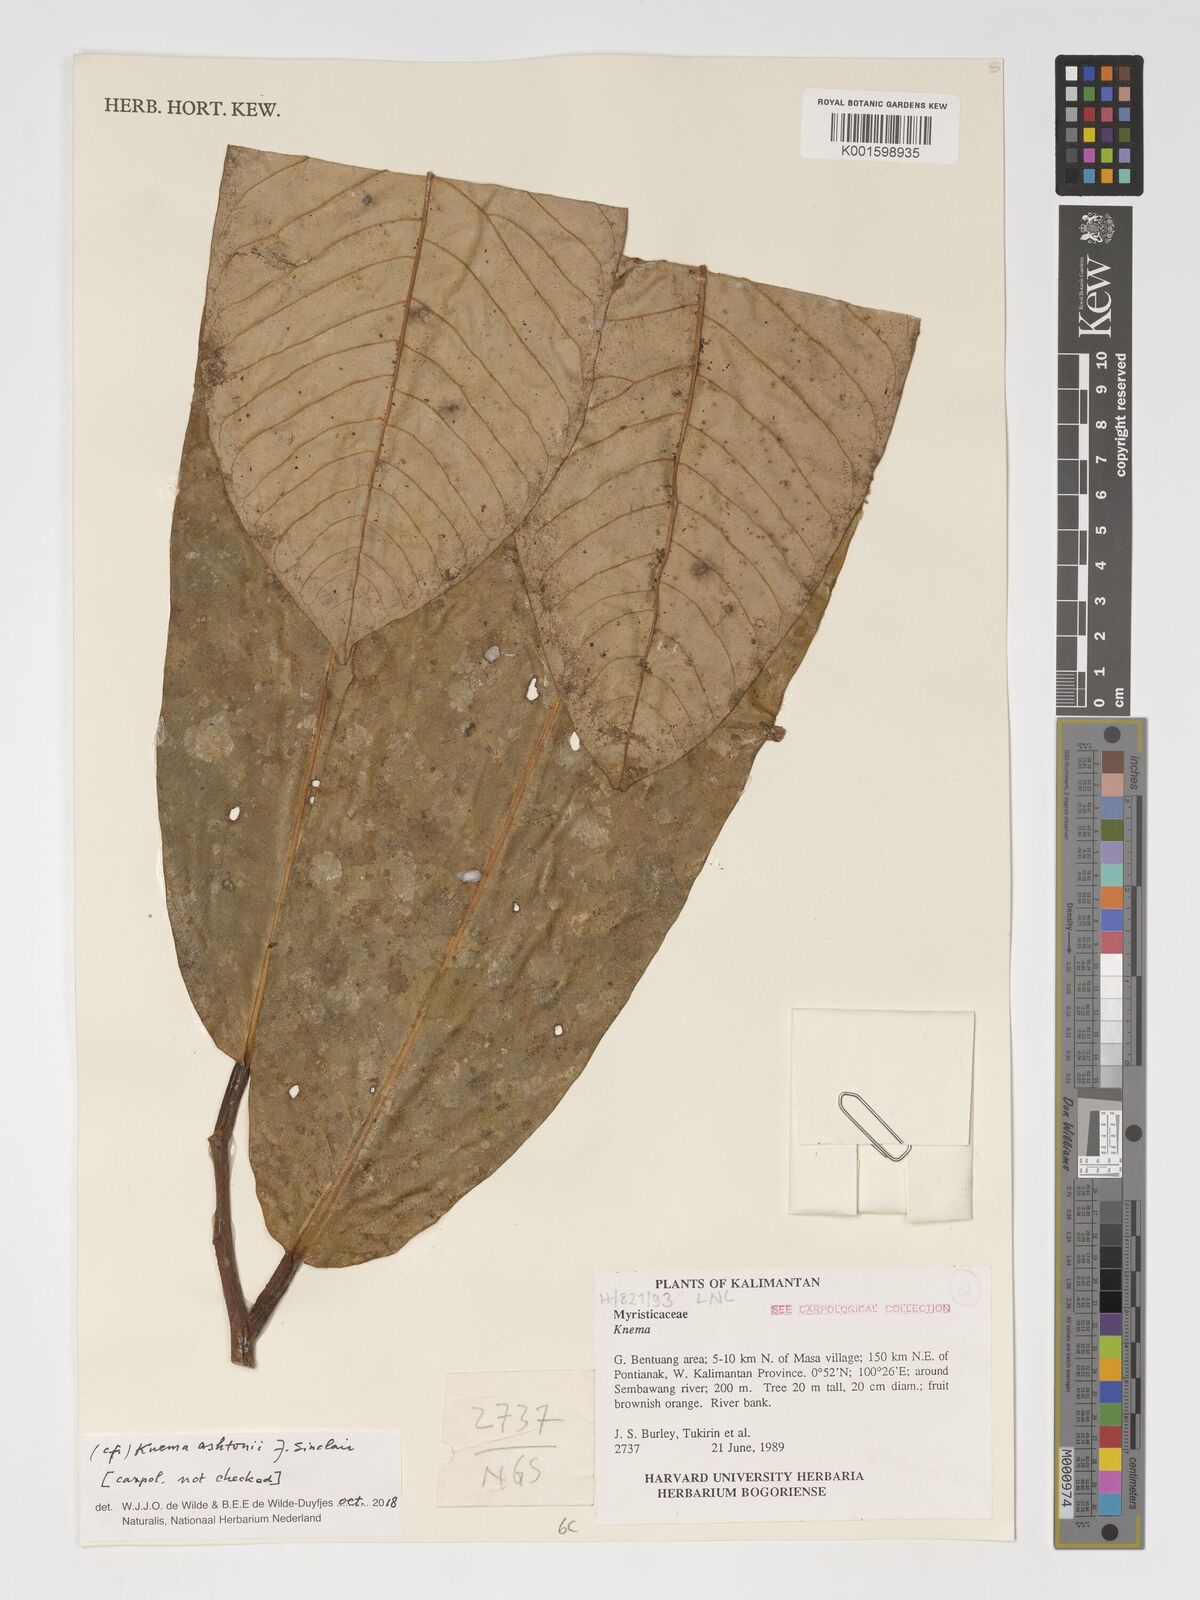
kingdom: Plantae
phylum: Tracheophyta
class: Magnoliopsida
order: Magnoliales
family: Myristicaceae
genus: Knema
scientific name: Knema ashtonii
